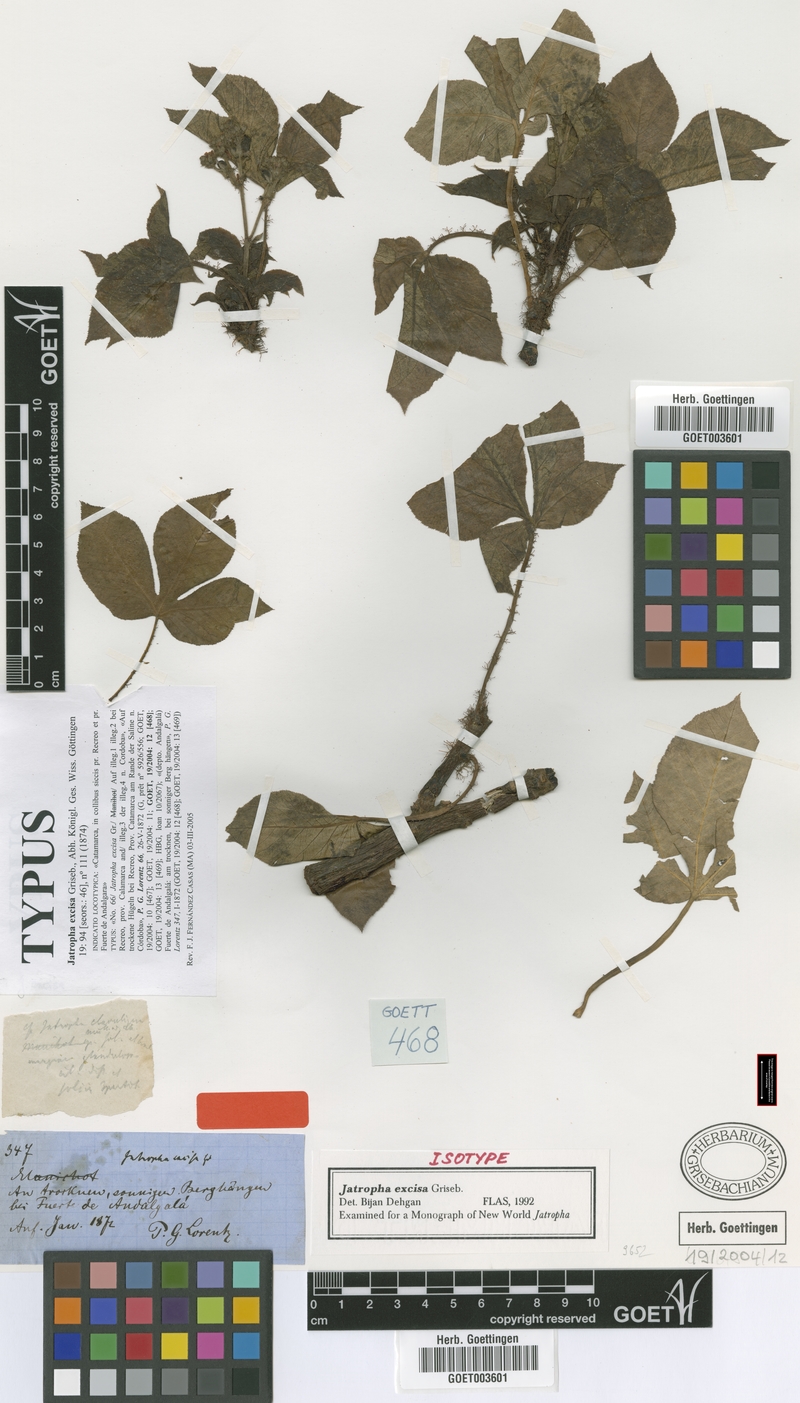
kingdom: Plantae
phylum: Tracheophyta
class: Magnoliopsida
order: Malpighiales
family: Euphorbiaceae
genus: Jatropha
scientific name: Jatropha excisa
